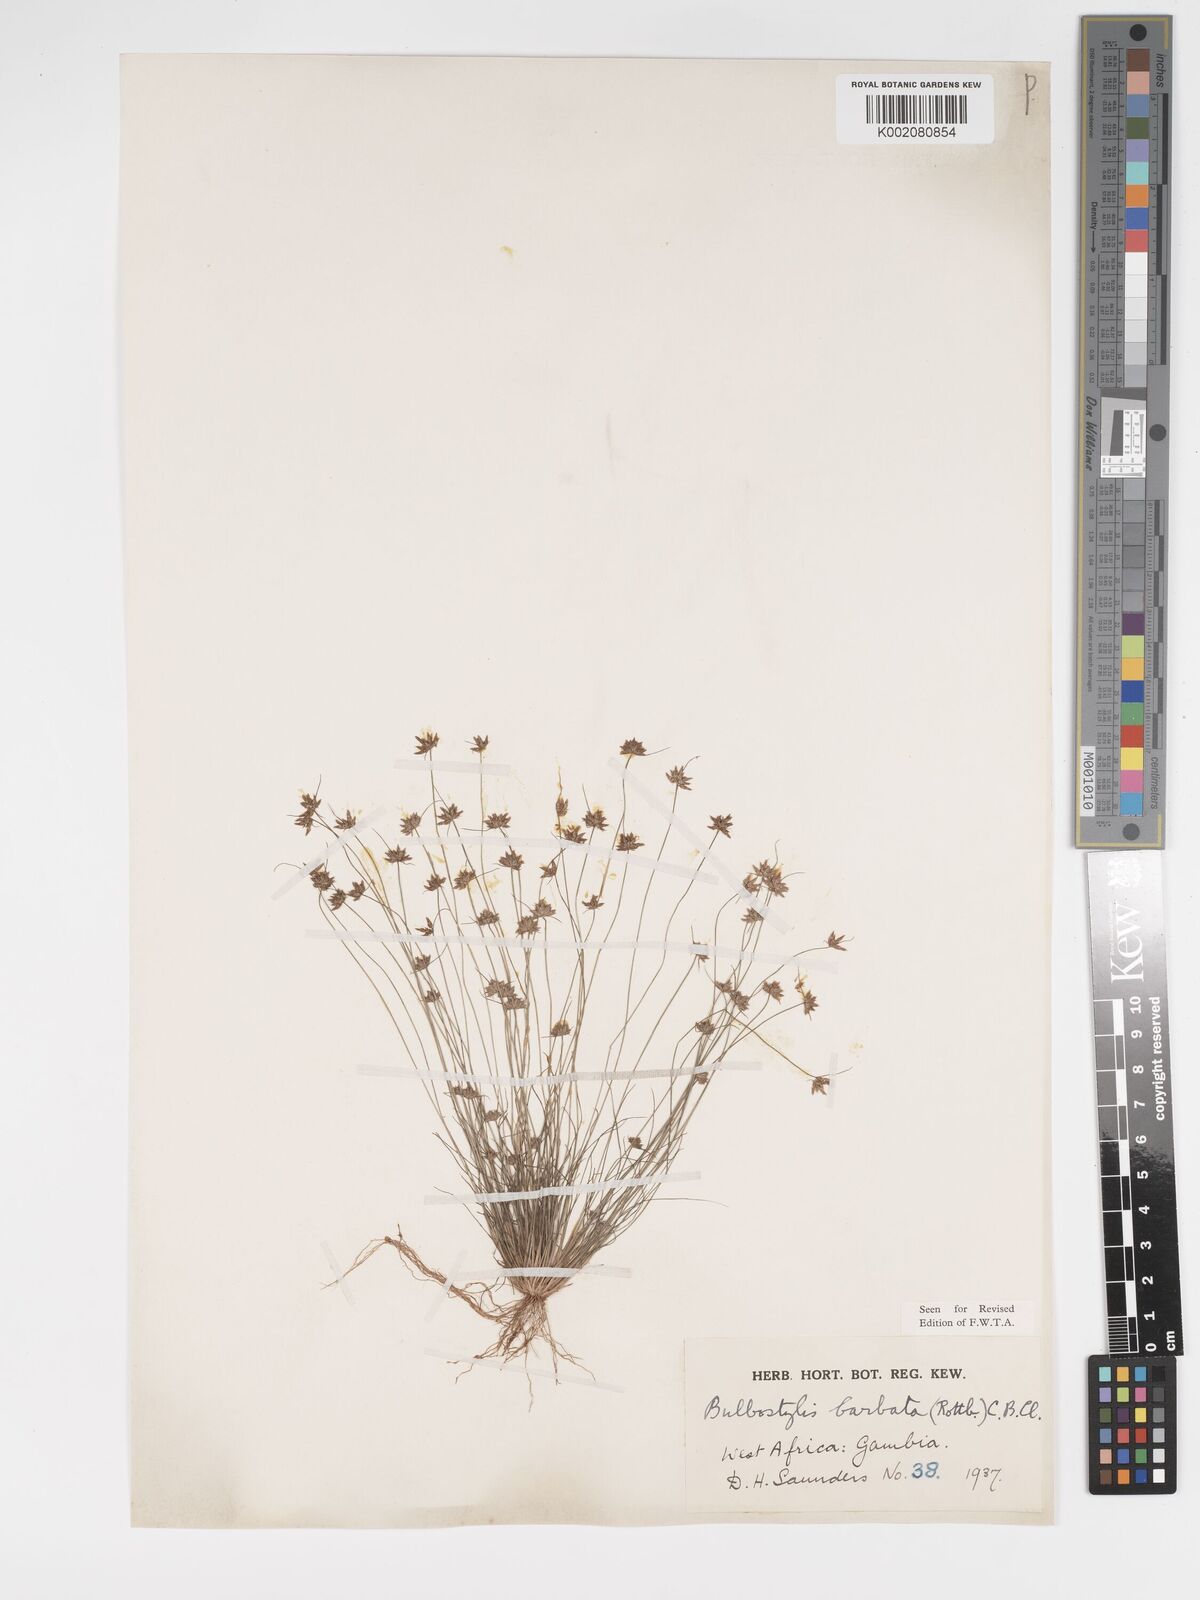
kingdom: Plantae
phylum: Tracheophyta
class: Liliopsida
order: Poales
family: Cyperaceae
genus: Bulbostylis
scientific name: Bulbostylis barbata
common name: Watergrass
